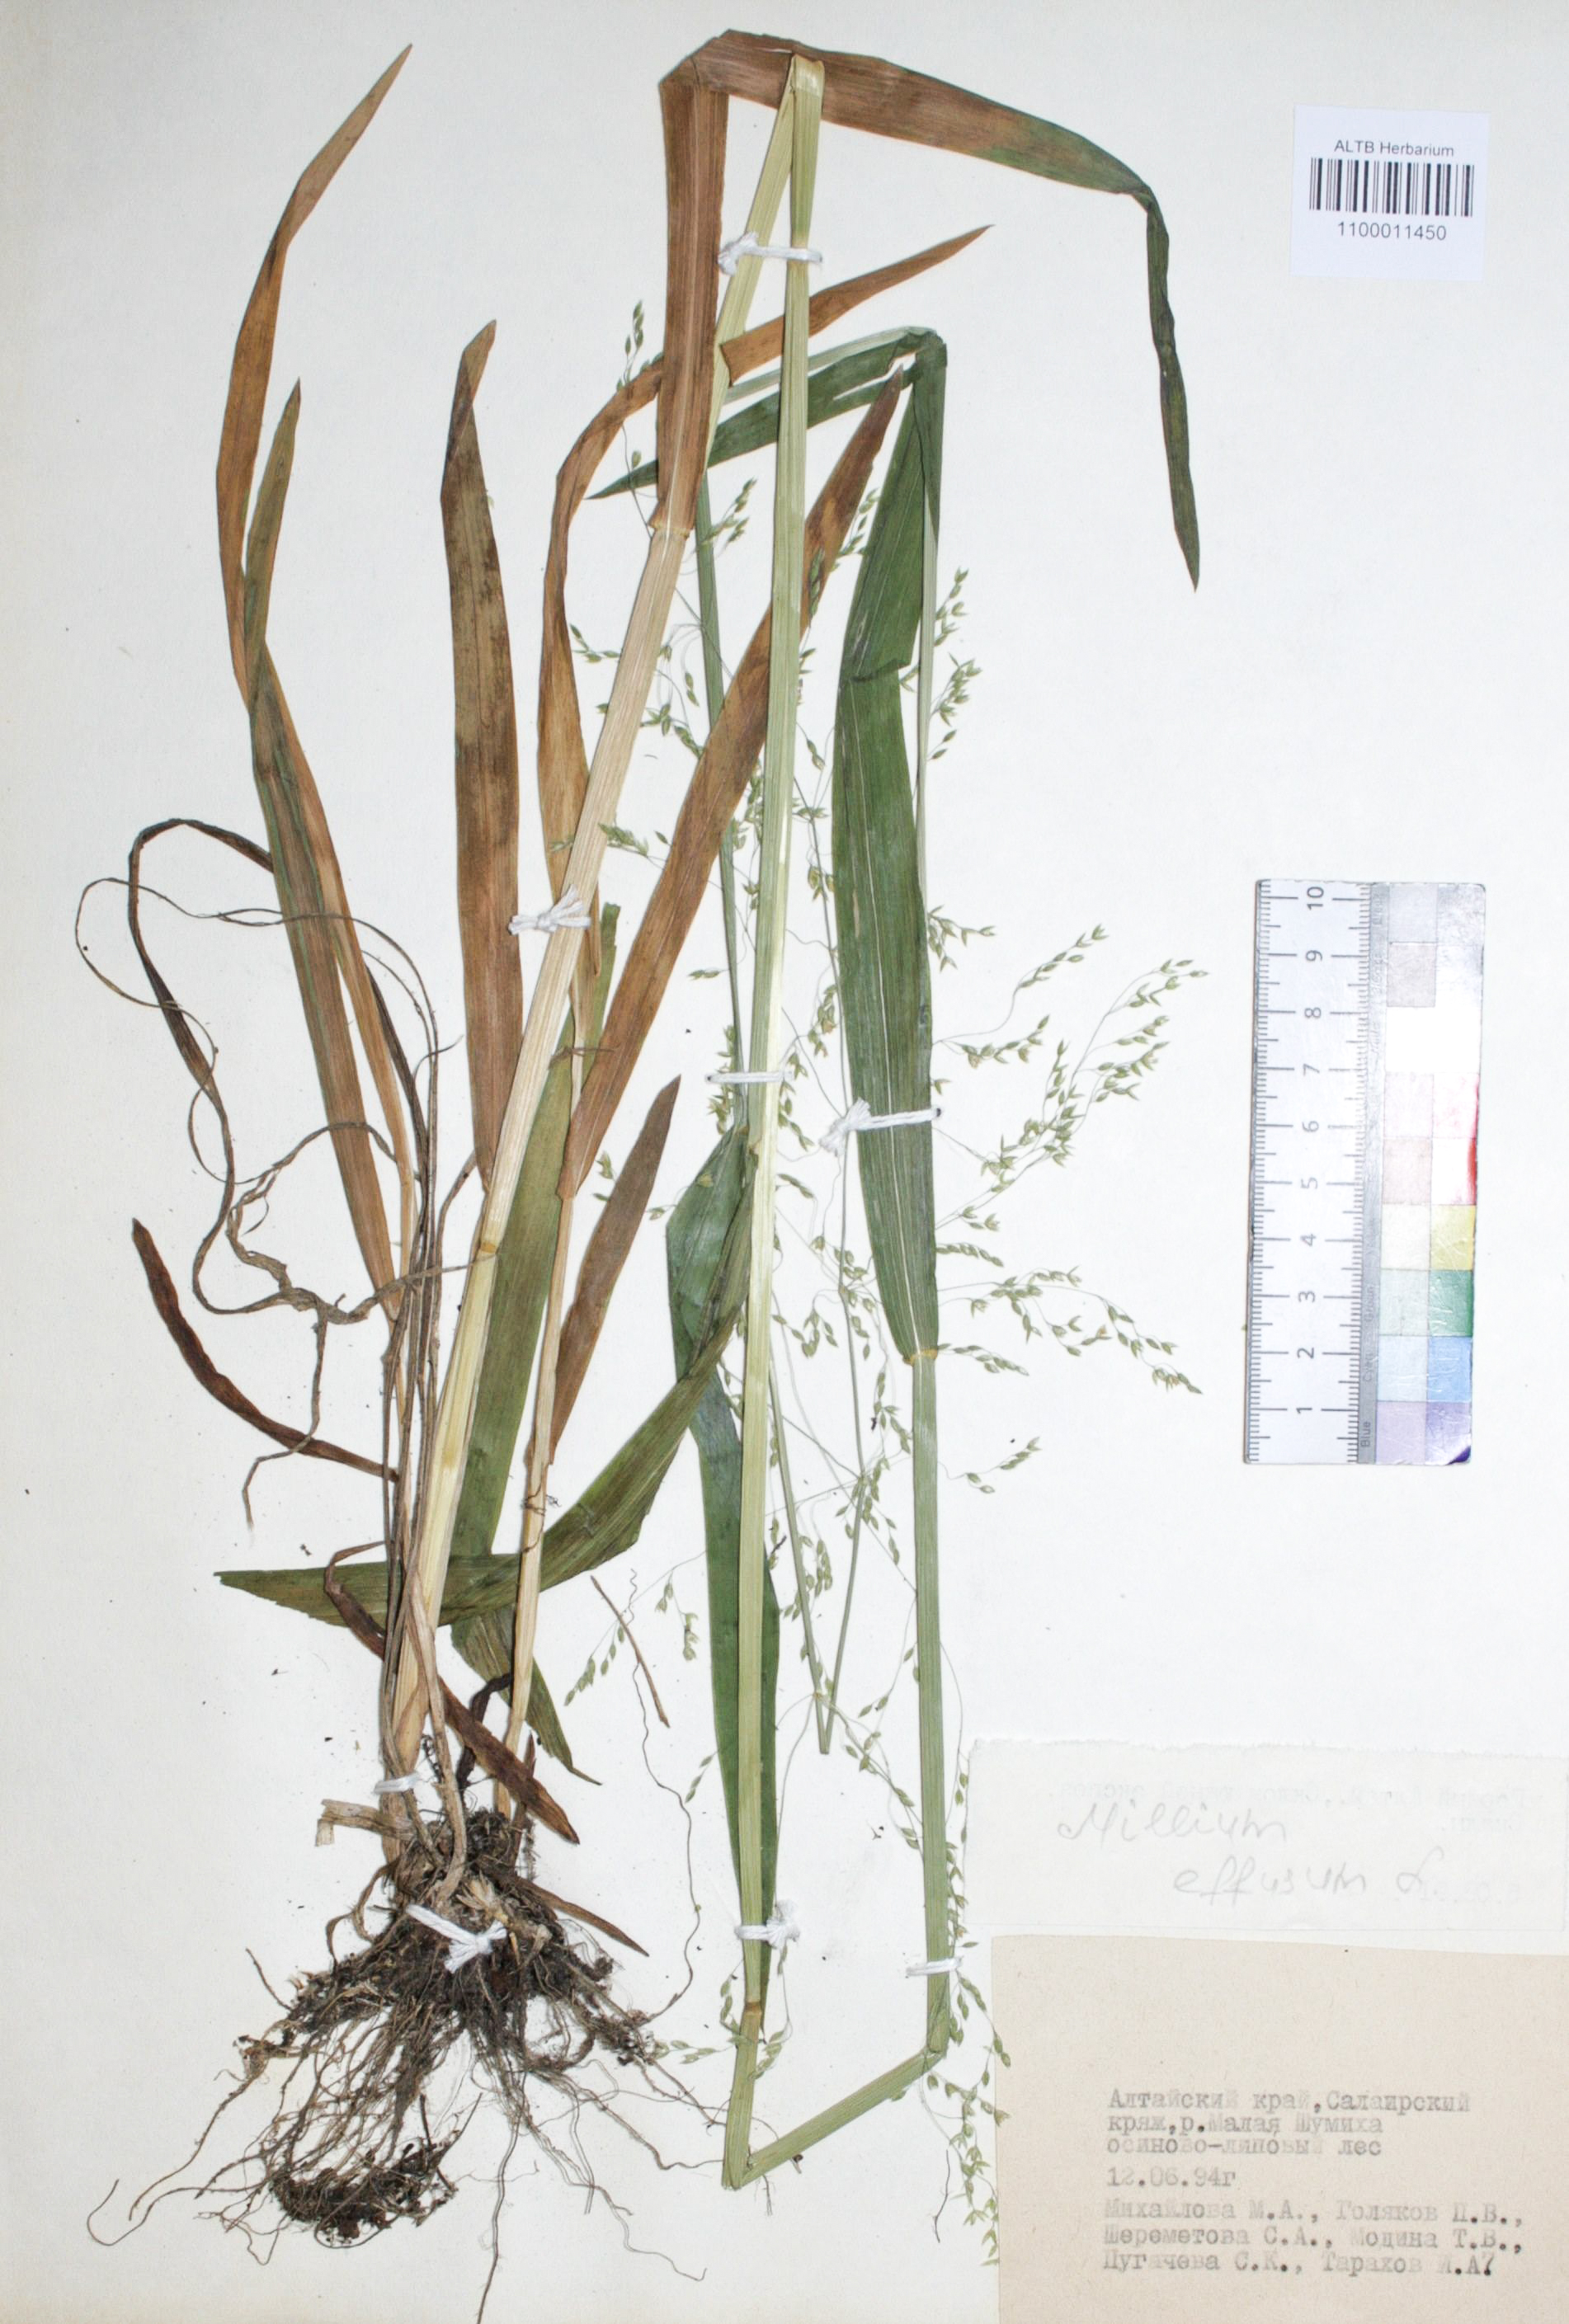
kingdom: Plantae
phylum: Tracheophyta
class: Liliopsida
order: Poales
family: Poaceae
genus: Milium
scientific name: Milium effusum
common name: Wood millet
